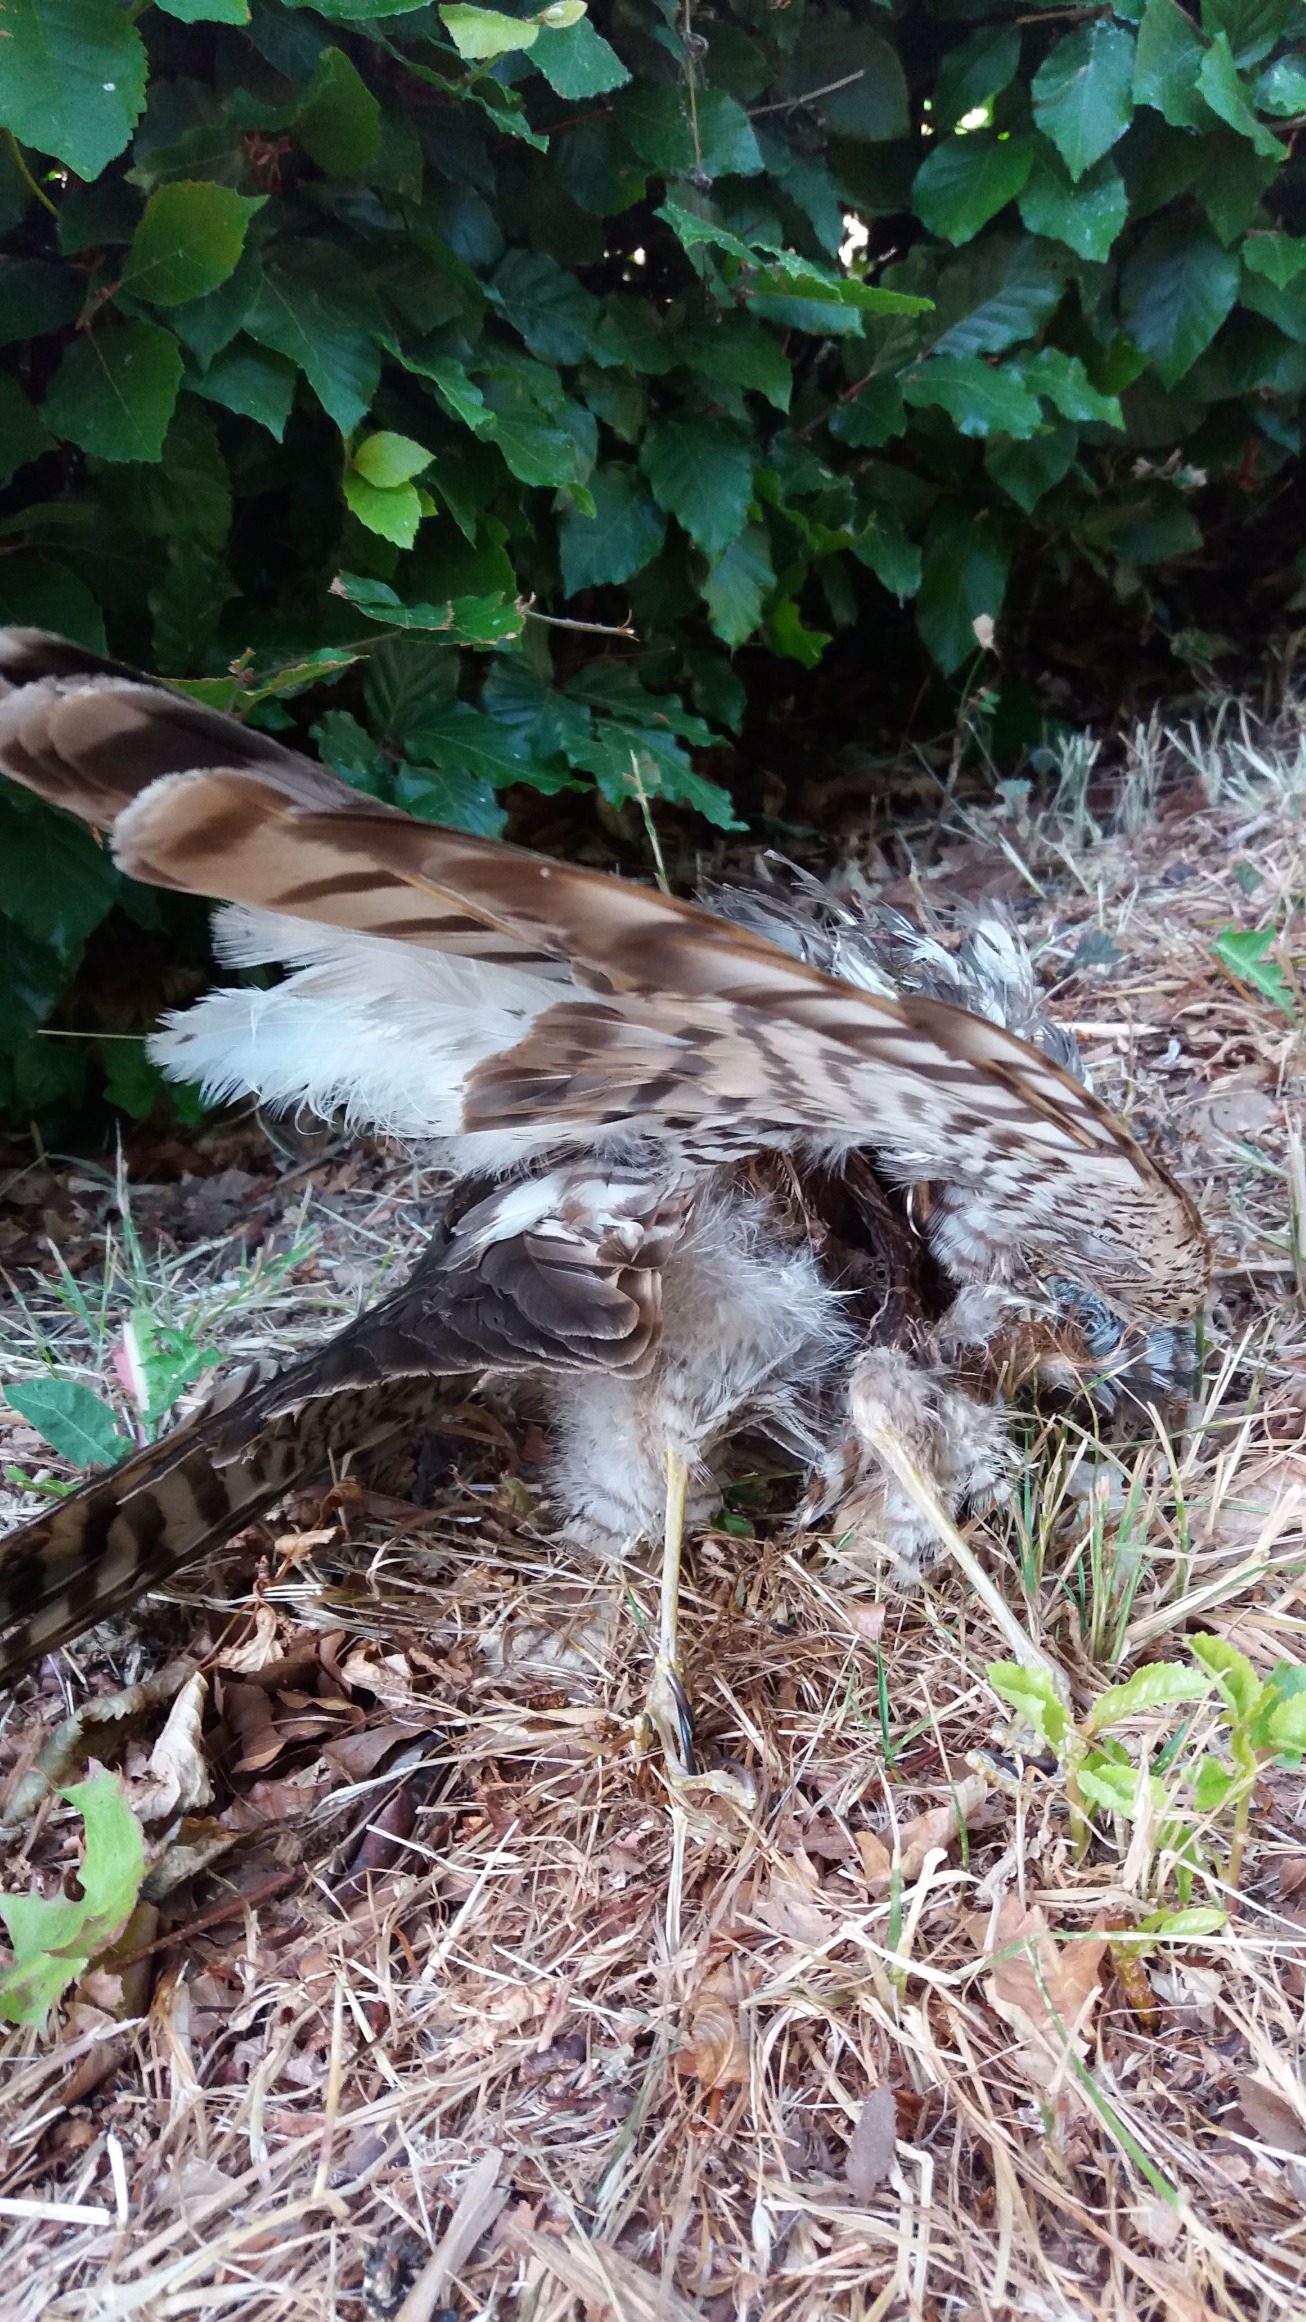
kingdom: Animalia
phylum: Chordata
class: Aves
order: Accipitriformes
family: Accipitridae
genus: Accipiter
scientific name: Accipiter nisus
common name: Spurvehøg
